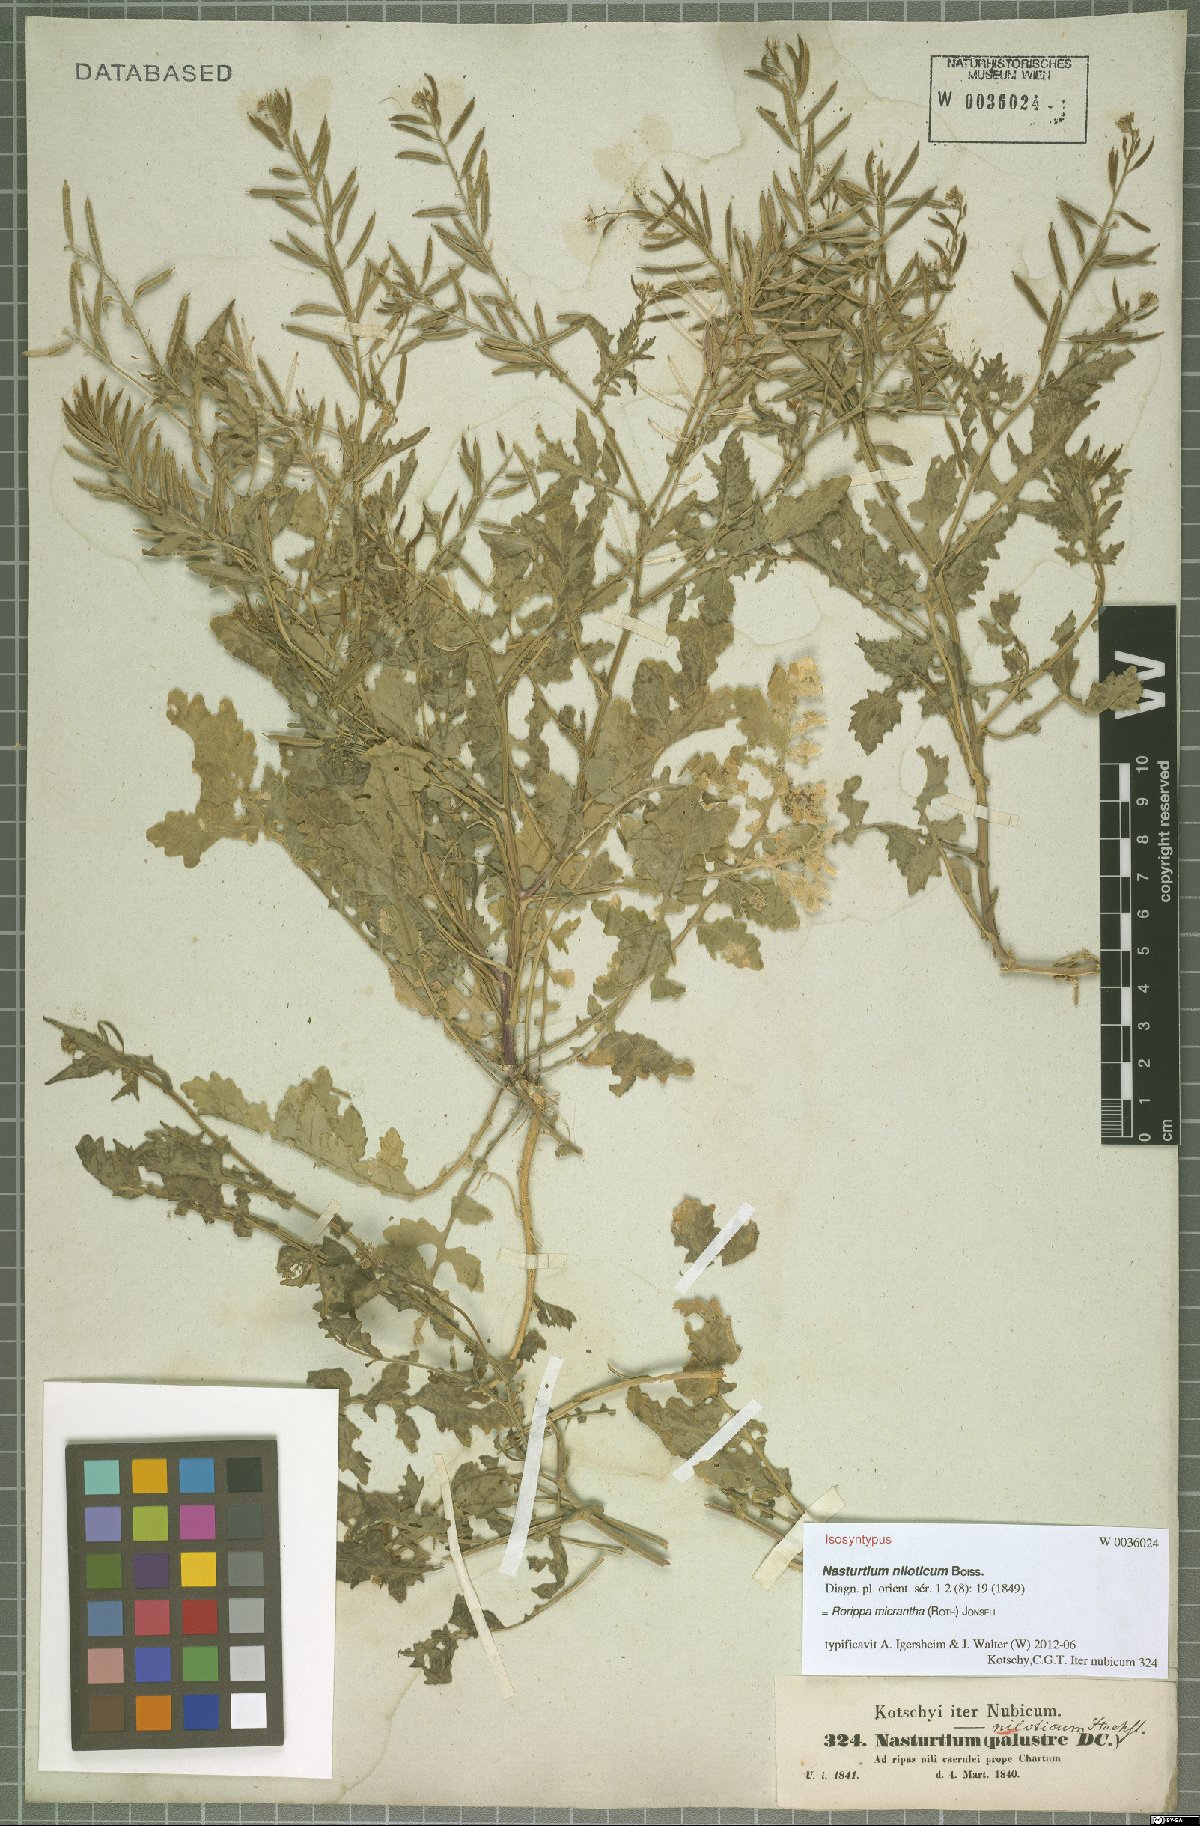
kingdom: Plantae
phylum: Tracheophyta
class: Magnoliopsida
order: Brassicales
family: Brassicaceae
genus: Rorippa
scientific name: Rorippa micrantha
